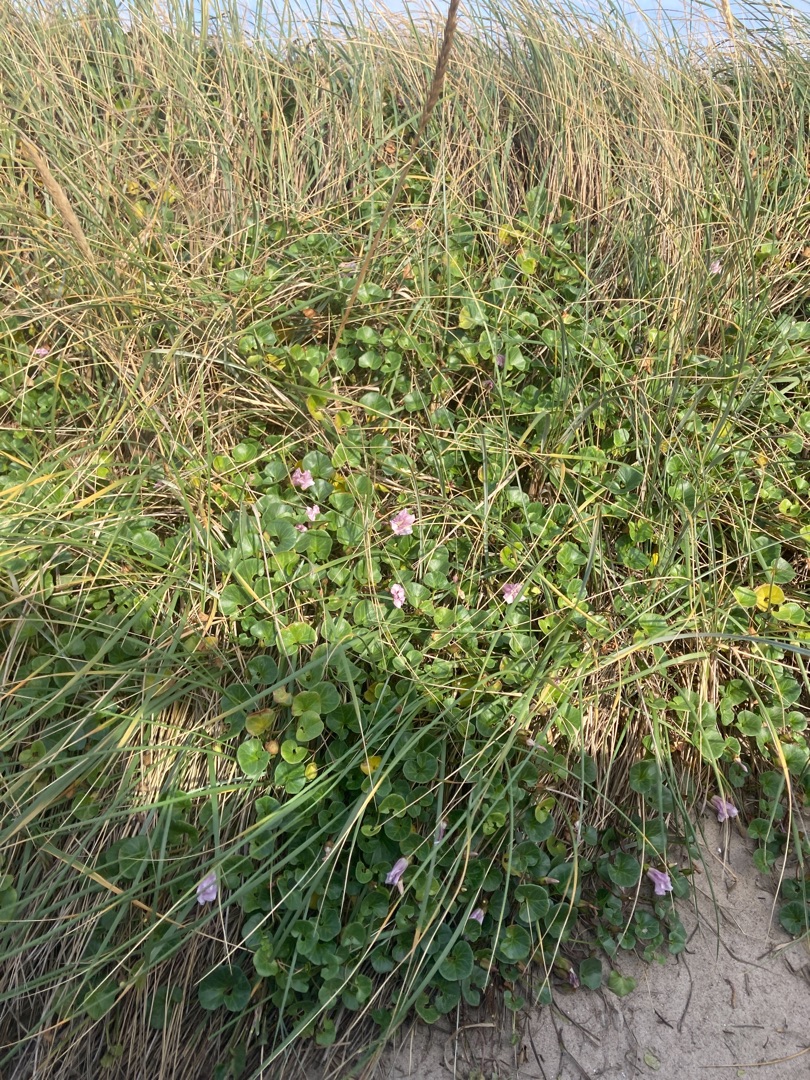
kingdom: Plantae
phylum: Tracheophyta
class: Magnoliopsida
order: Solanales
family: Convolvulaceae
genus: Calystegia
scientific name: Calystegia soldanella
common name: Strand-snerle
